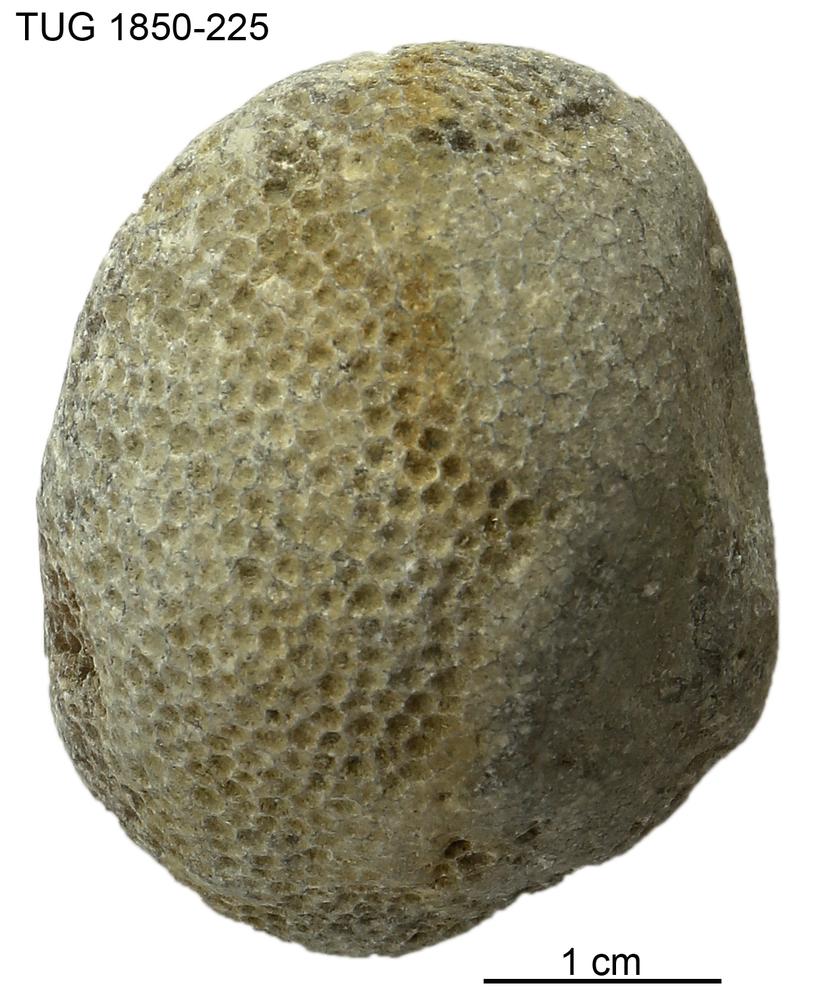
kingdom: Animalia
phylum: Cnidaria
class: Anthozoa
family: Favositidae
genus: Favosites
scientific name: Favosites
